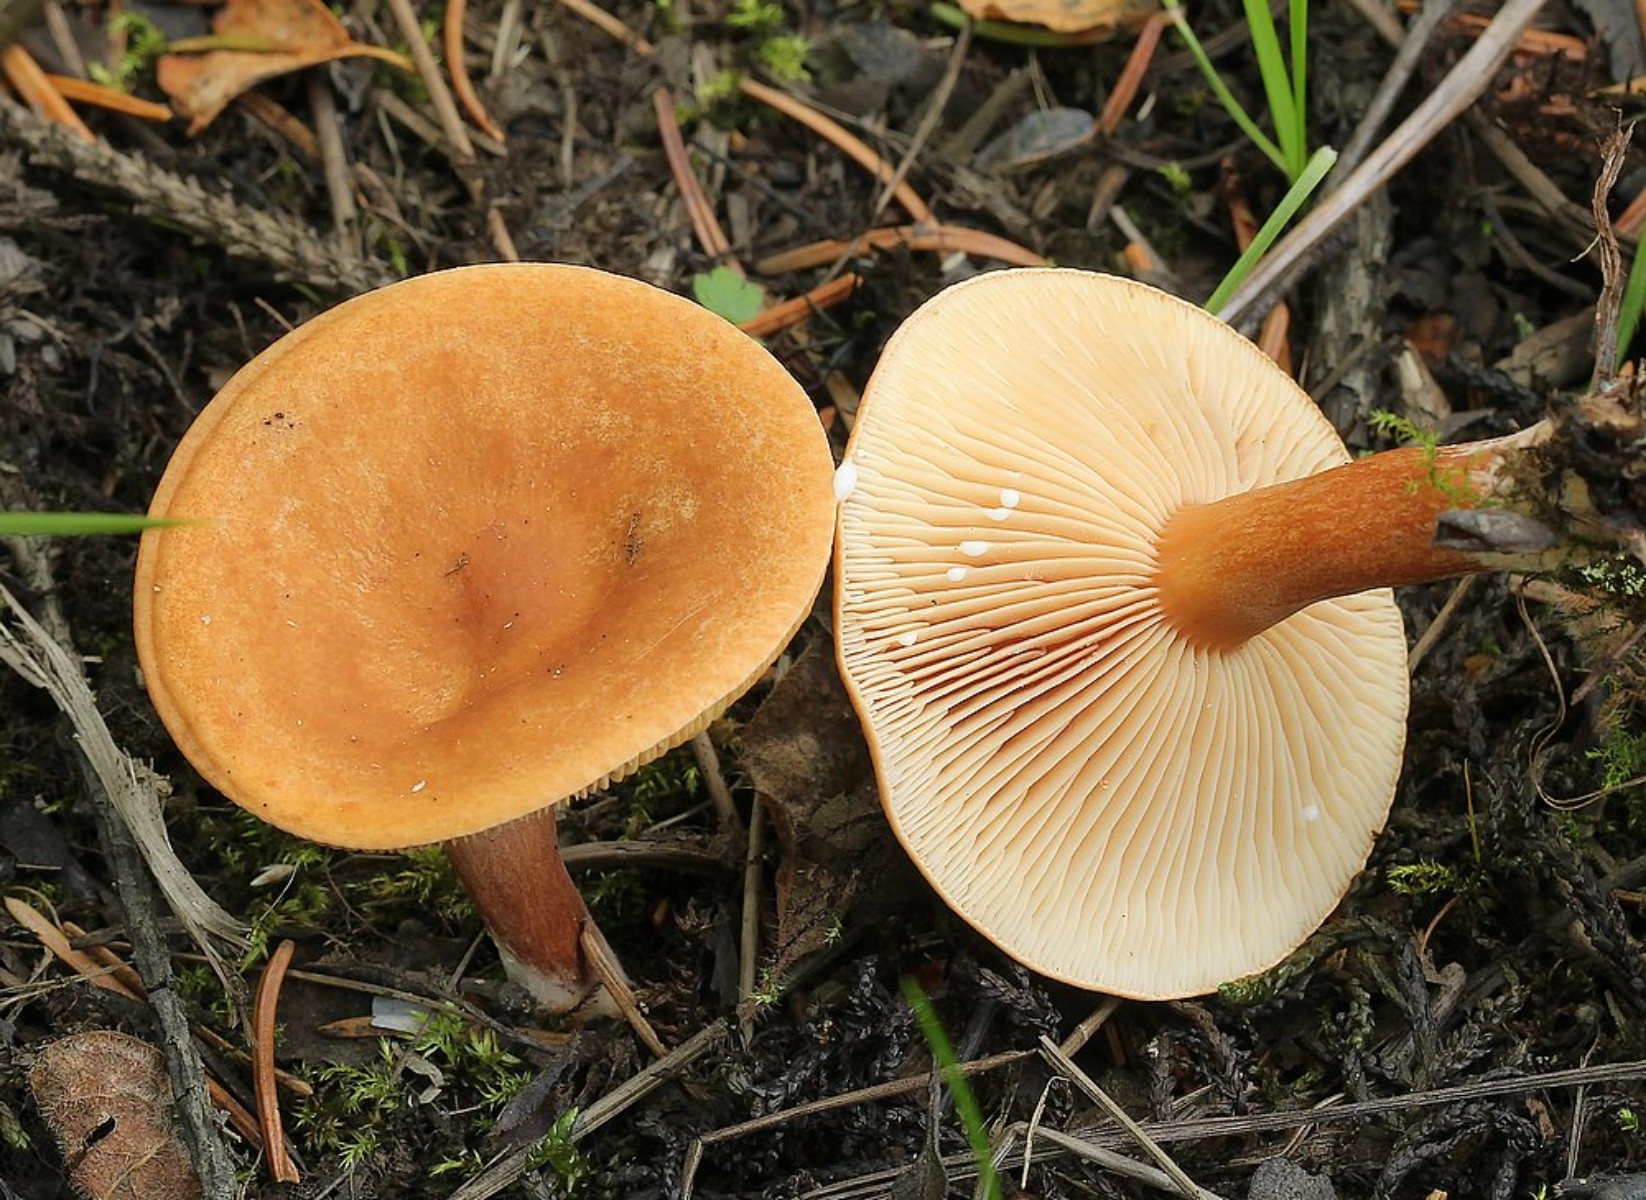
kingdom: Fungi
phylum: Basidiomycota
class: Agaricomycetes
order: Russulales
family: Russulaceae
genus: Lactarius
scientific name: Lactarius lacunarum
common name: sump-mælkehat
